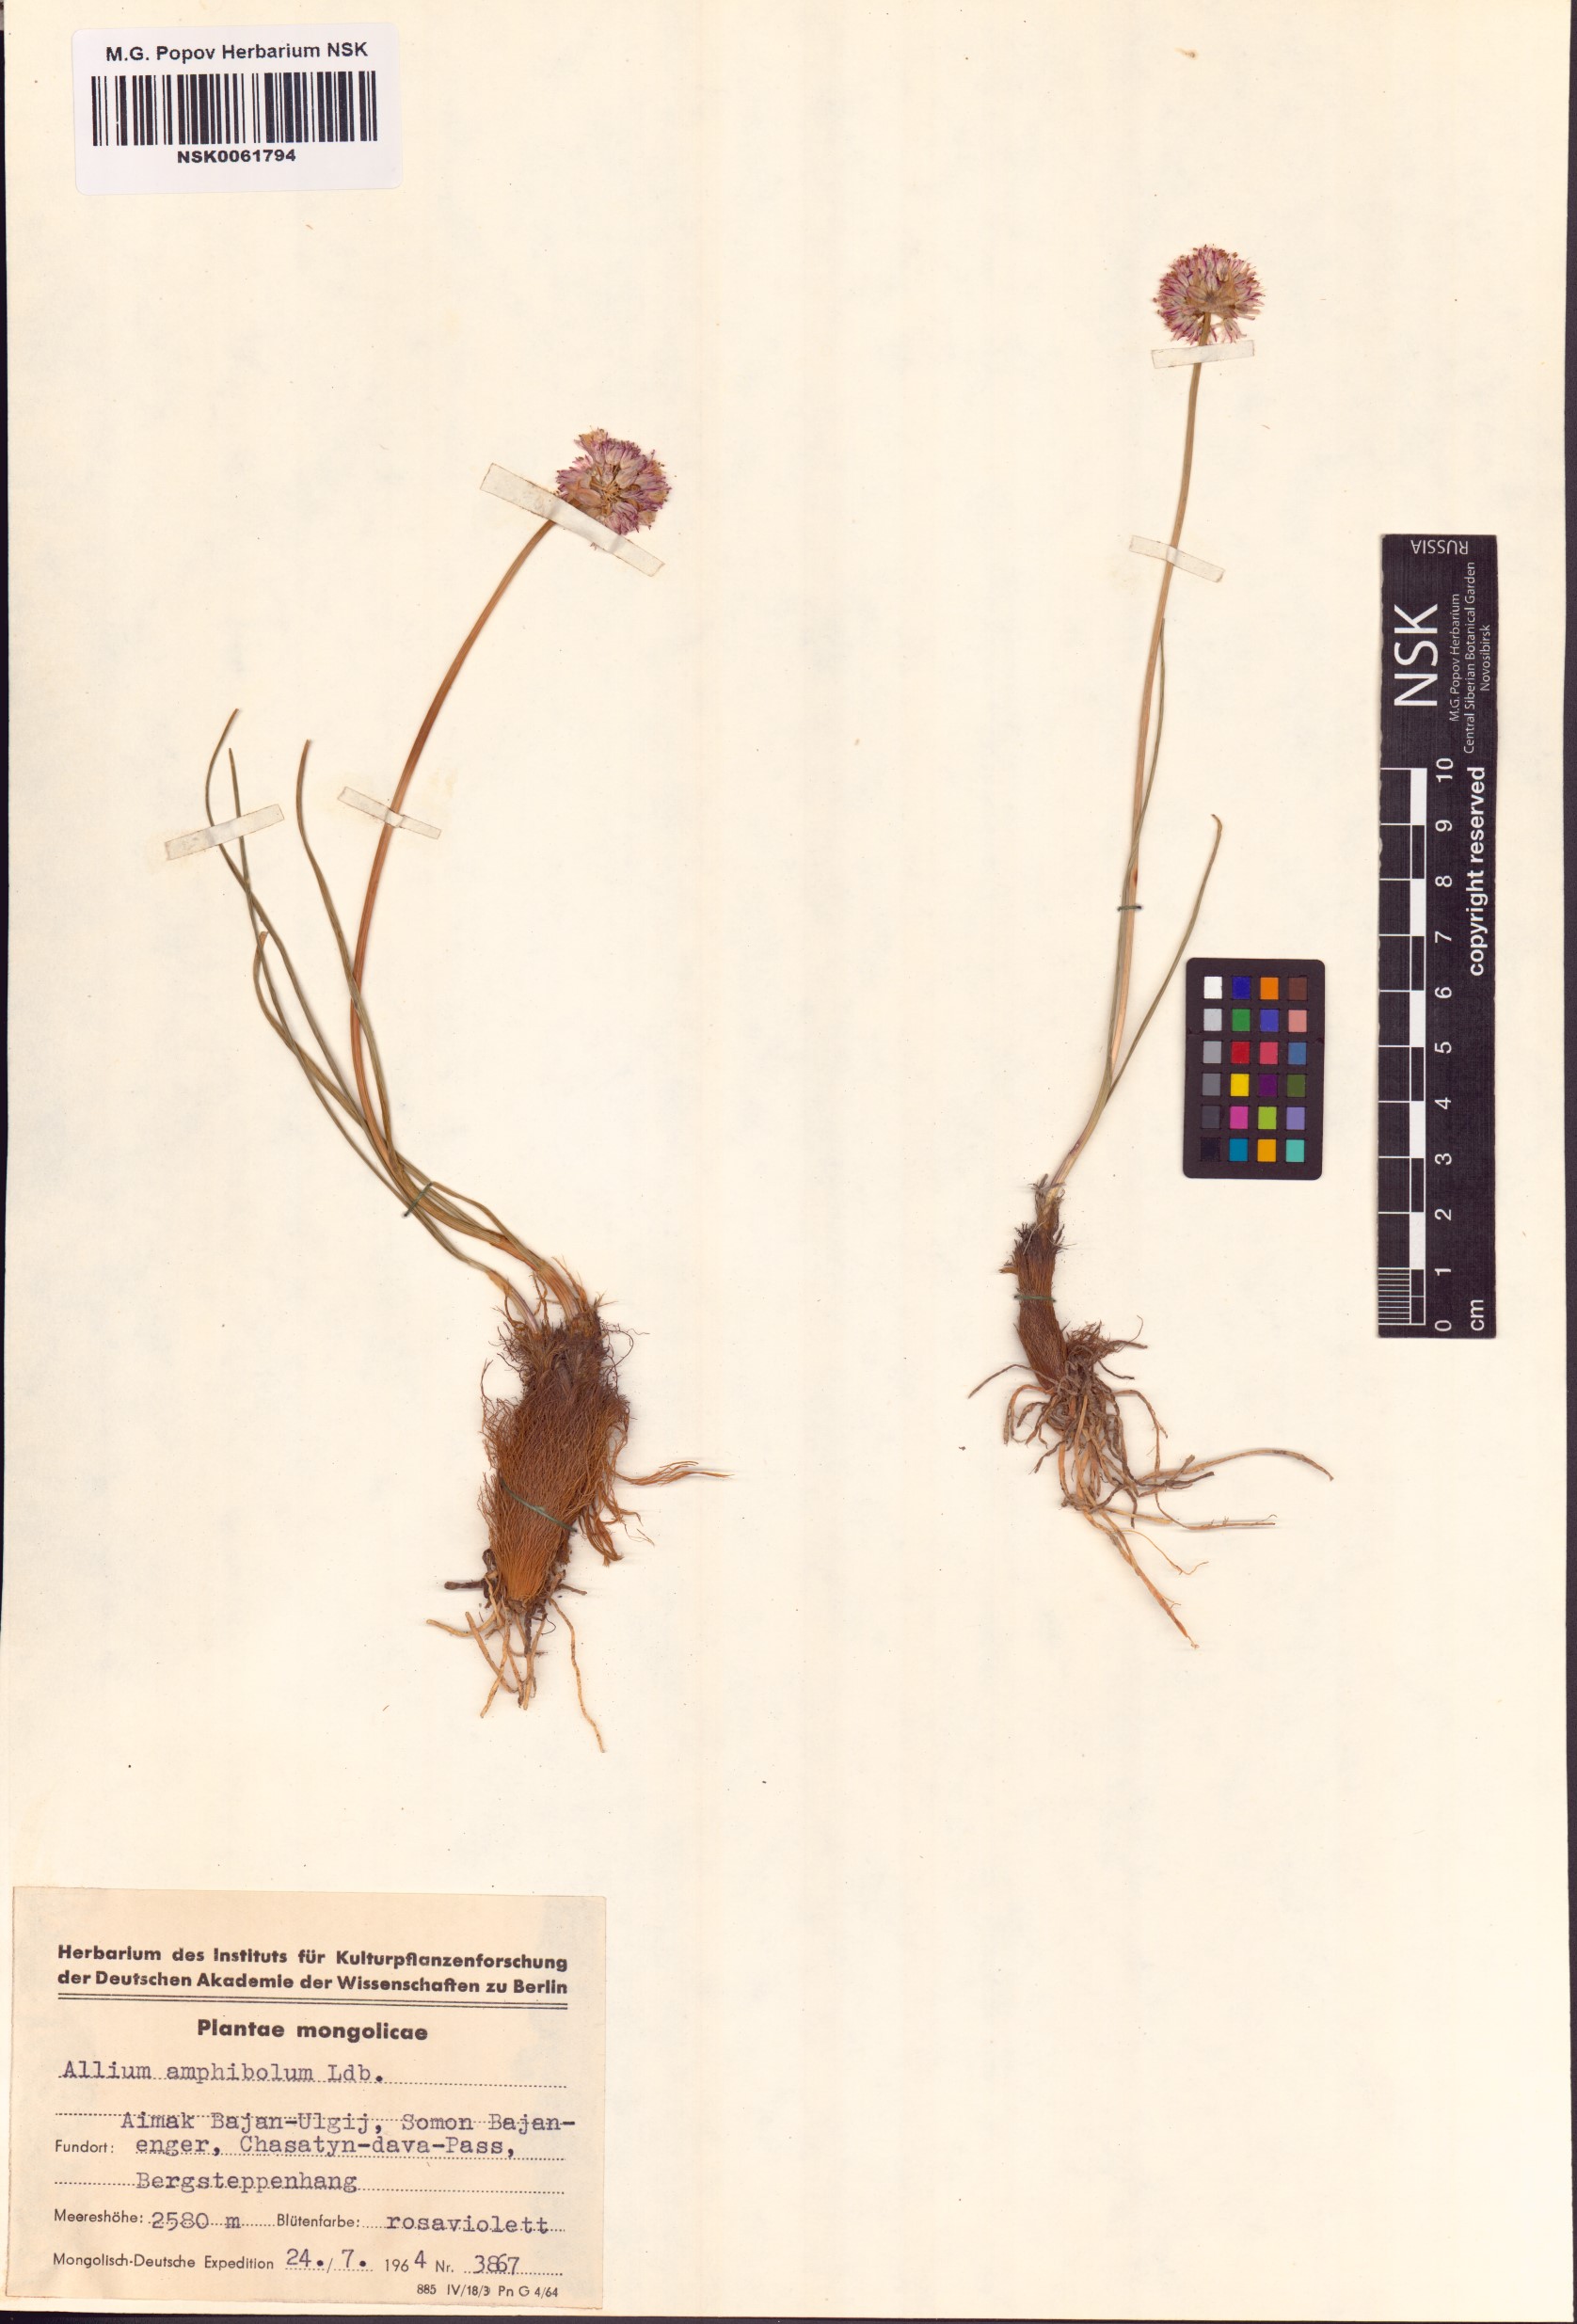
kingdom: Plantae
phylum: Tracheophyta
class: Liliopsida
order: Asparagales
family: Amaryllidaceae
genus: Allium
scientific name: Allium amphibolum
